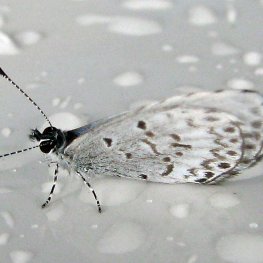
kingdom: Animalia
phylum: Arthropoda
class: Insecta
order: Lepidoptera
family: Lycaenidae
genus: Cyaniris
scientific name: Cyaniris neglecta
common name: Summer Azure
